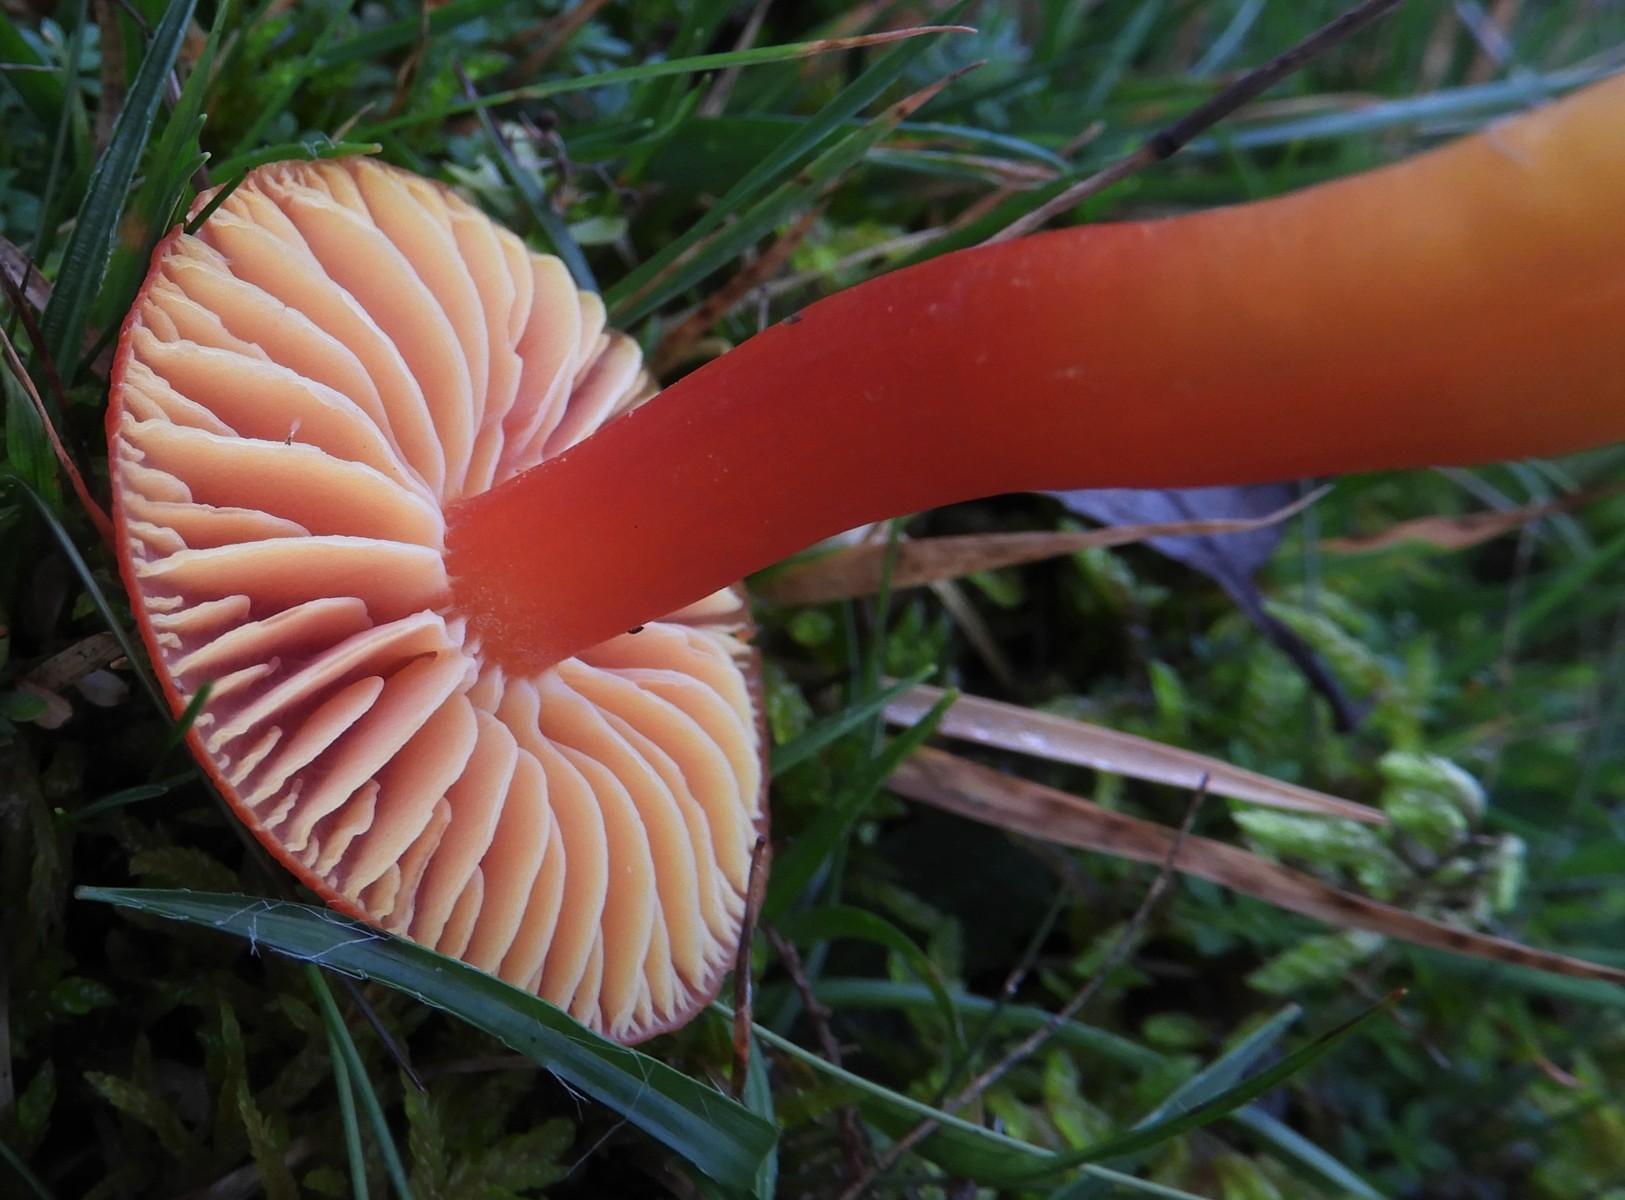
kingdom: Fungi
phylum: Basidiomycota
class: Agaricomycetes
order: Agaricales
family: Hygrophoraceae
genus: Hygrocybe
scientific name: Hygrocybe coccinea
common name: cinnober-vokshat
